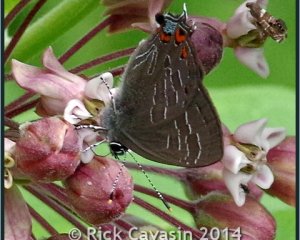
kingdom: Animalia
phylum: Arthropoda
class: Insecta
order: Lepidoptera
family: Lycaenidae
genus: Satyrium
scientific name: Satyrium liparops
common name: Striped Hairstreak
